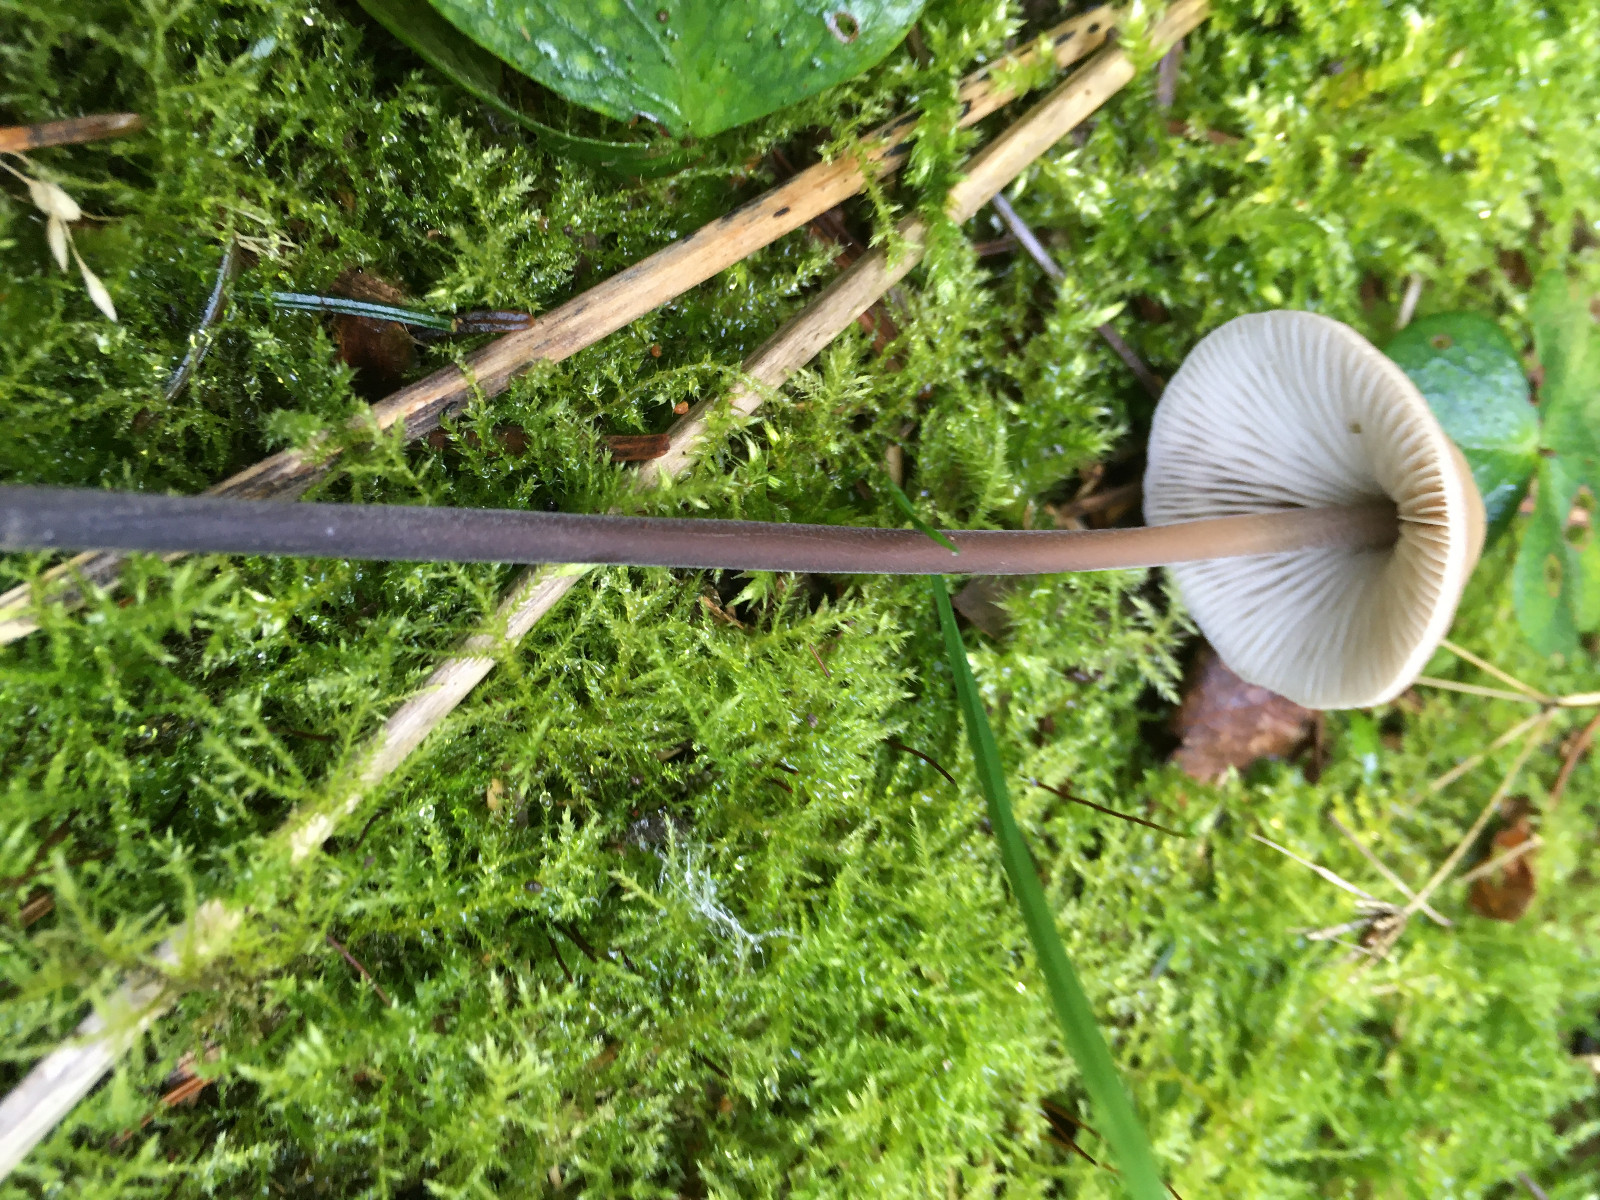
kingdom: Fungi
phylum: Basidiomycota
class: Agaricomycetes
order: Agaricales
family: Omphalotaceae
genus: Mycetinis
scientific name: Mycetinis alliaceus
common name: stor løghat
